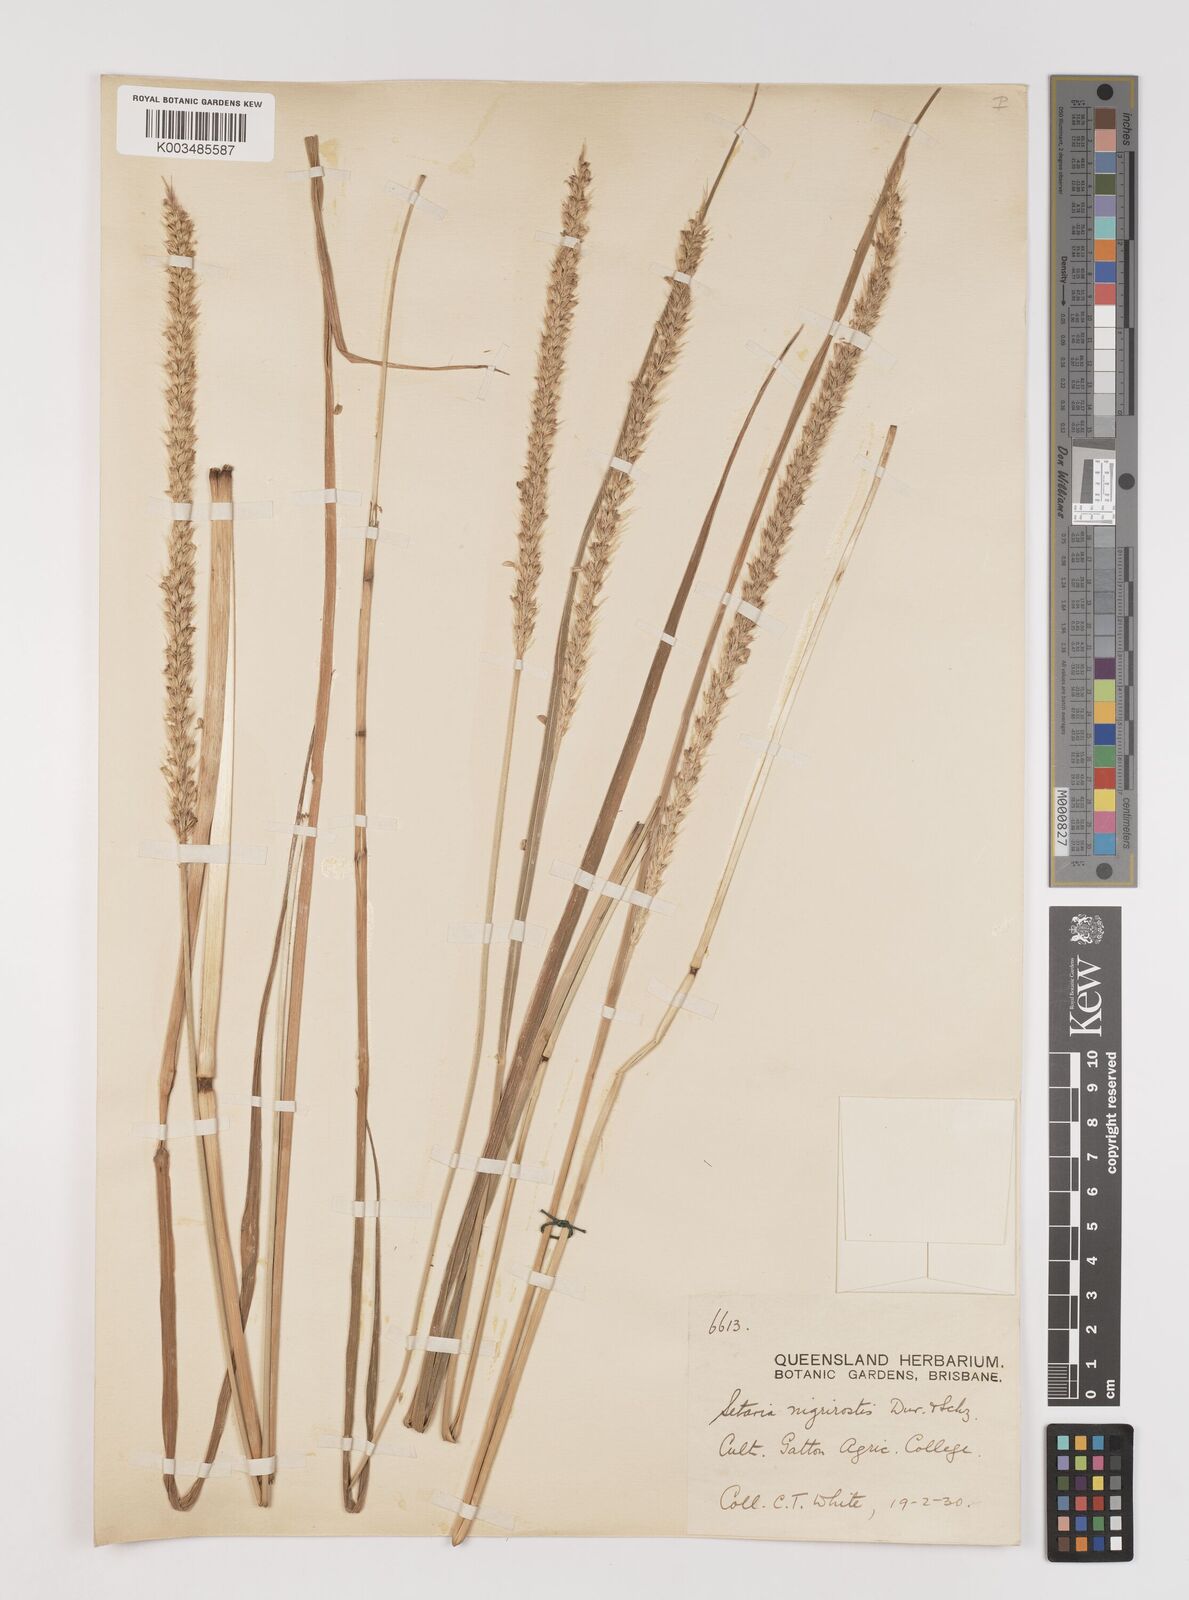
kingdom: Plantae
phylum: Tracheophyta
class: Liliopsida
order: Poales
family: Poaceae
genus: Setaria
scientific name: Setaria
